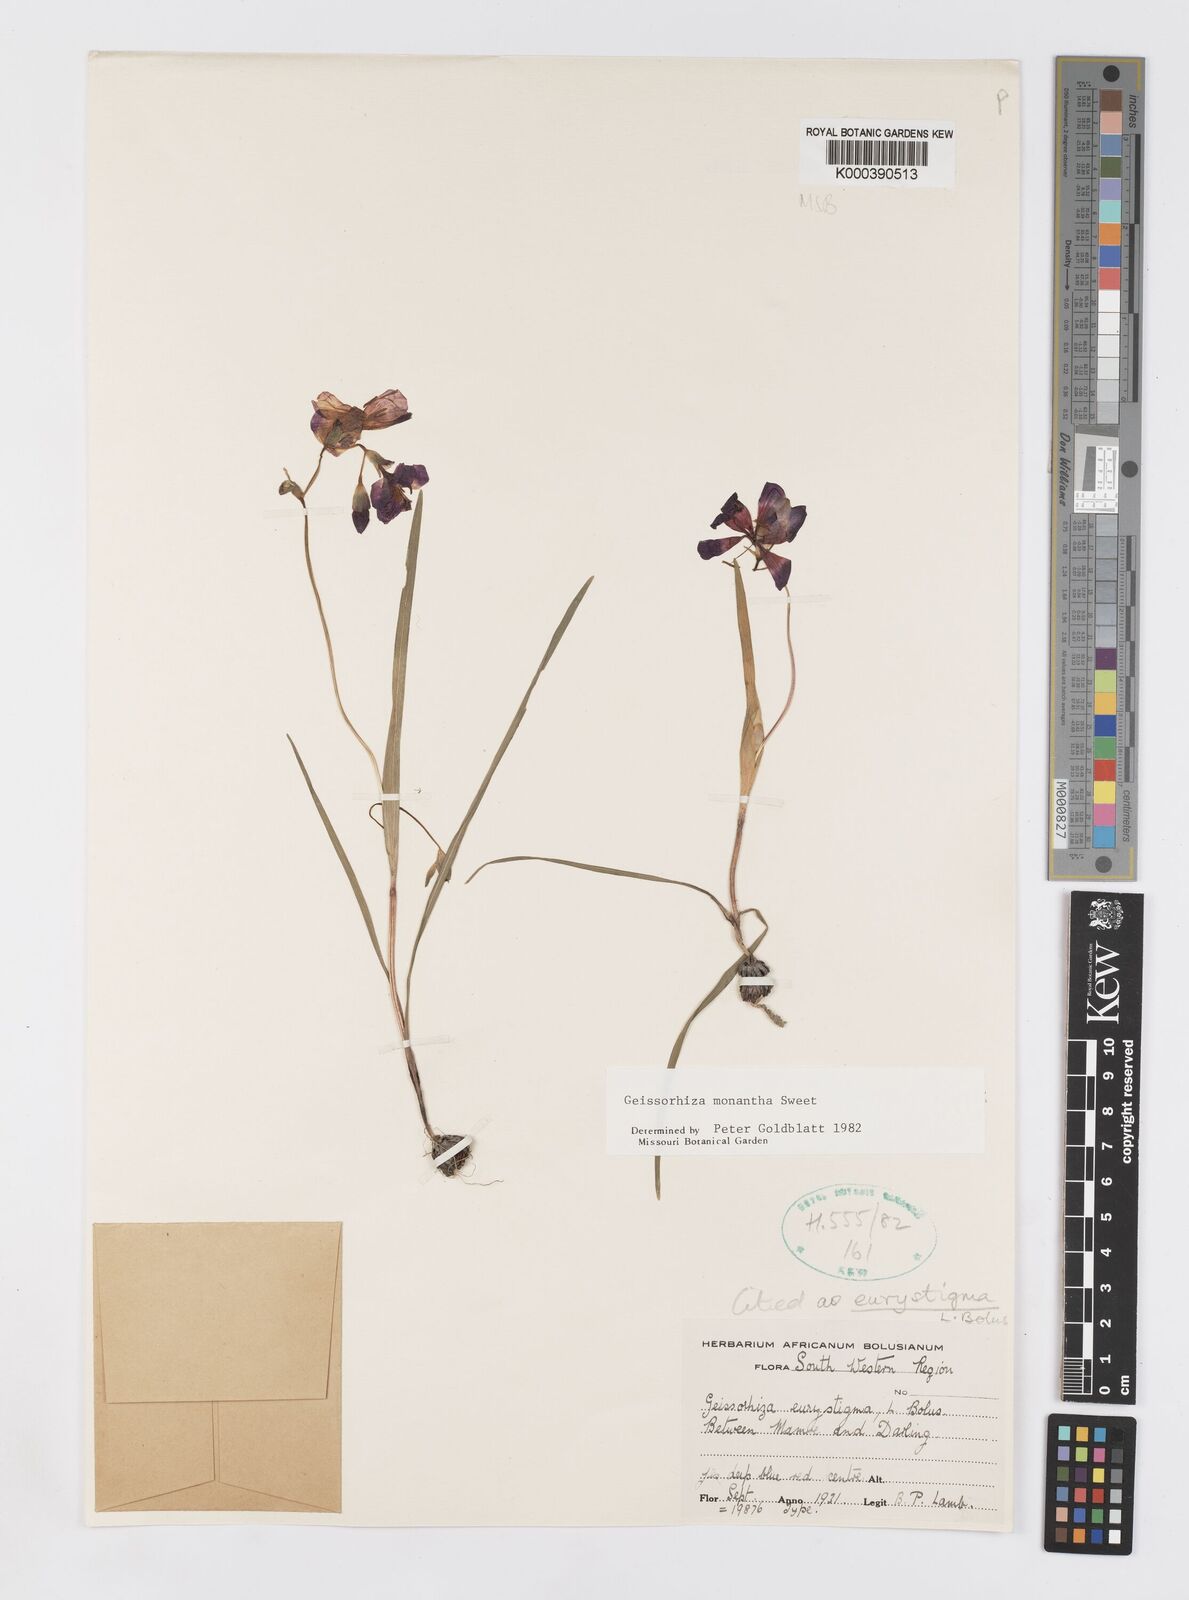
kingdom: Plantae
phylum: Tracheophyta
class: Liliopsida
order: Asparagales
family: Iridaceae
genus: Geissorhiza
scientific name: Geissorhiza eurystigma
